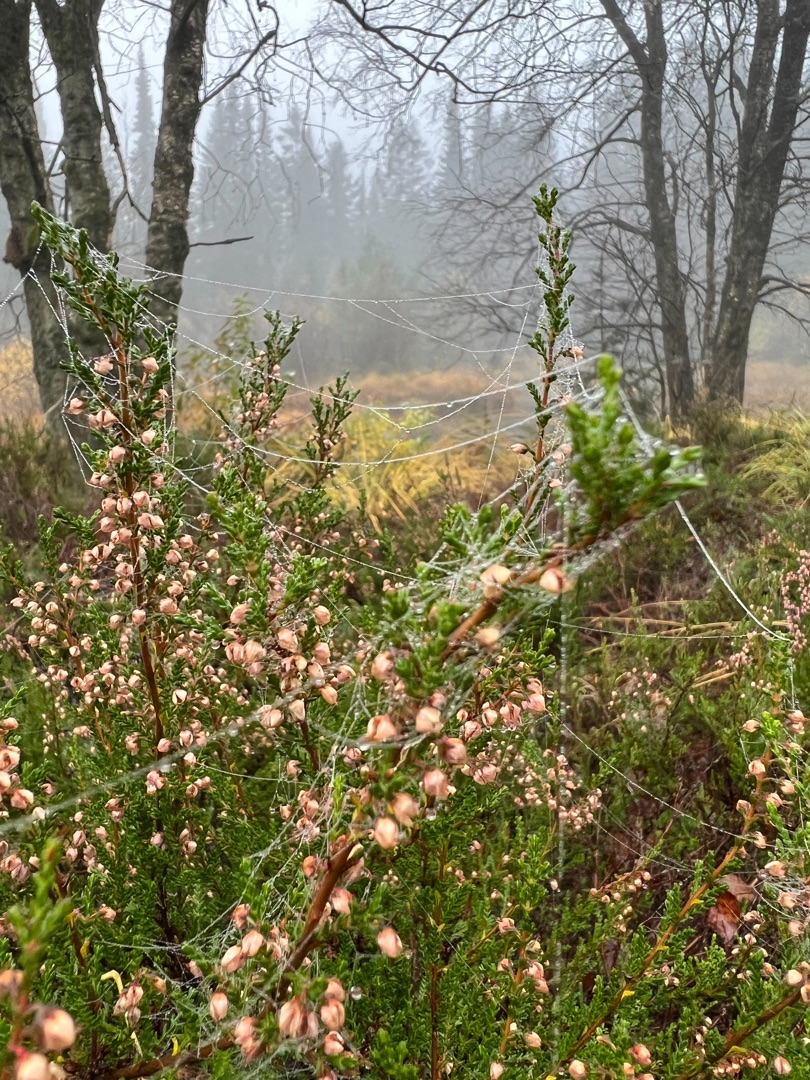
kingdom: Plantae
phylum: Tracheophyta
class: Magnoliopsida
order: Ericales
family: Ericaceae
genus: Calluna
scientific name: Calluna vulgaris
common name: Hedelyng
